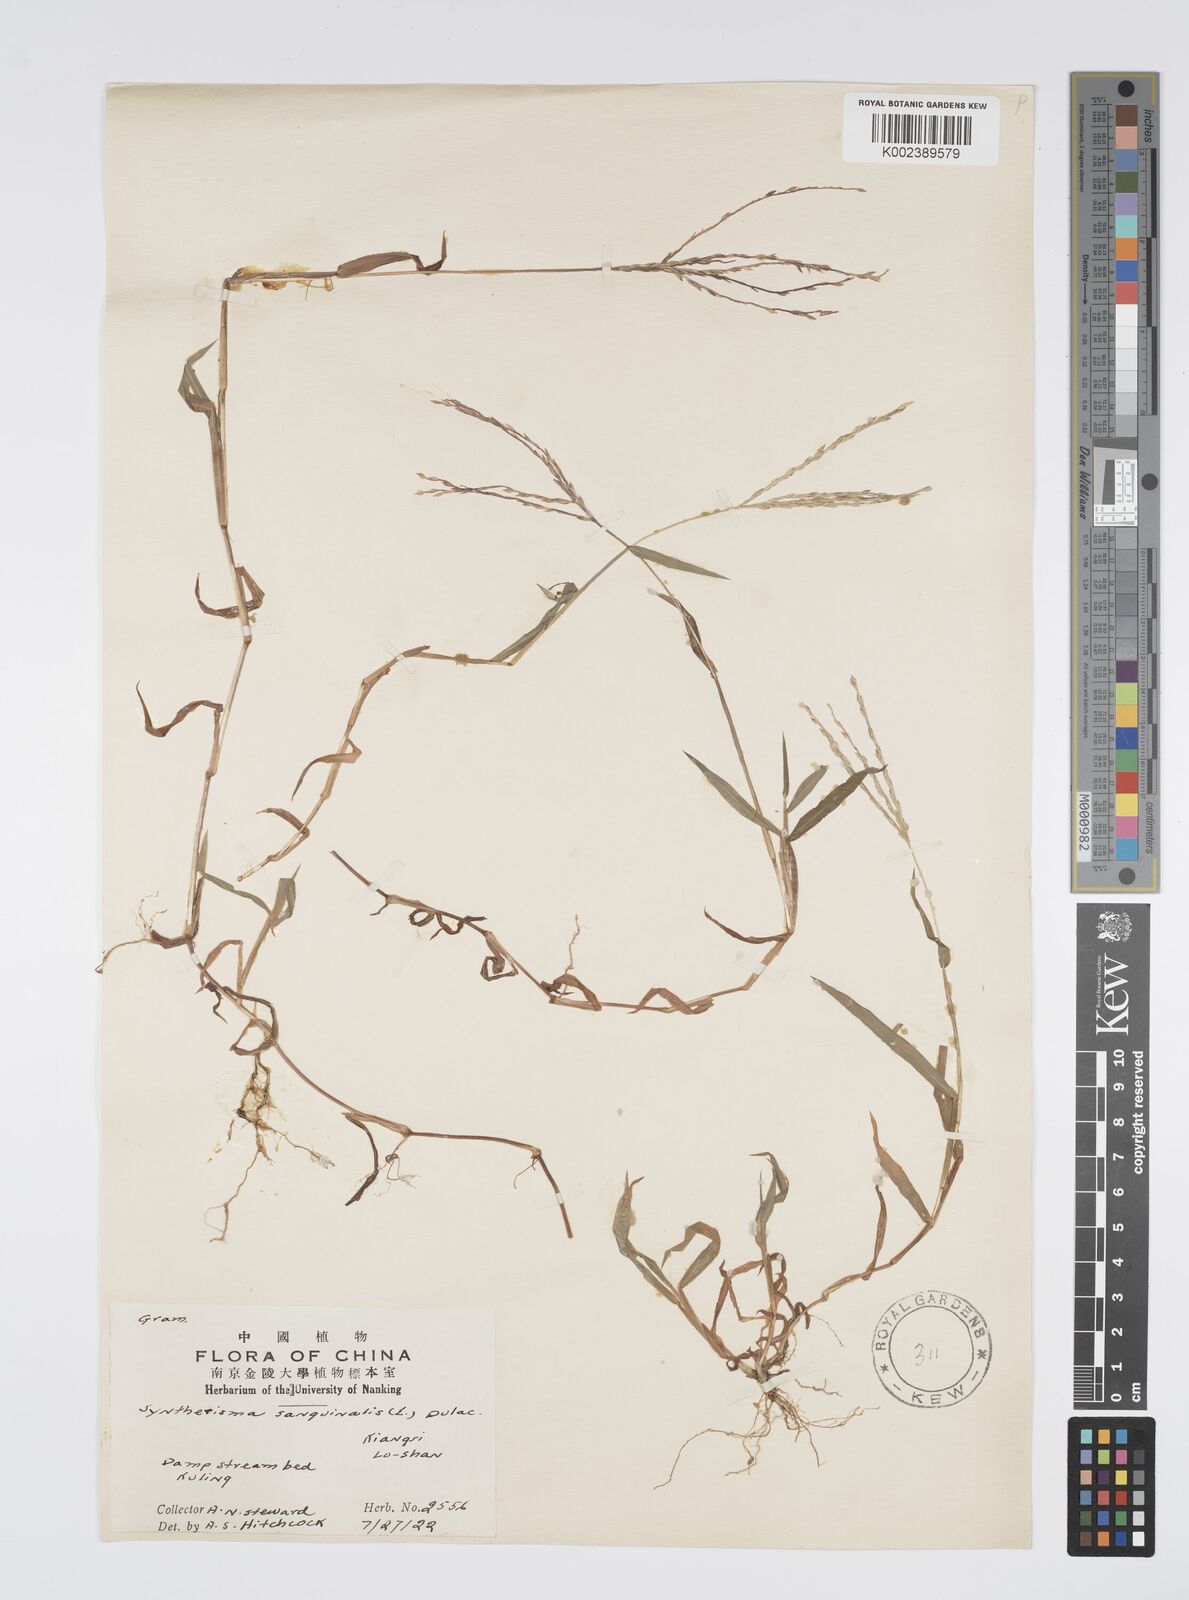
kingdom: Plantae
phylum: Tracheophyta
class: Liliopsida
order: Poales
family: Poaceae
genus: Digitaria
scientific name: Digitaria ciliaris
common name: Tropical finger-grass
